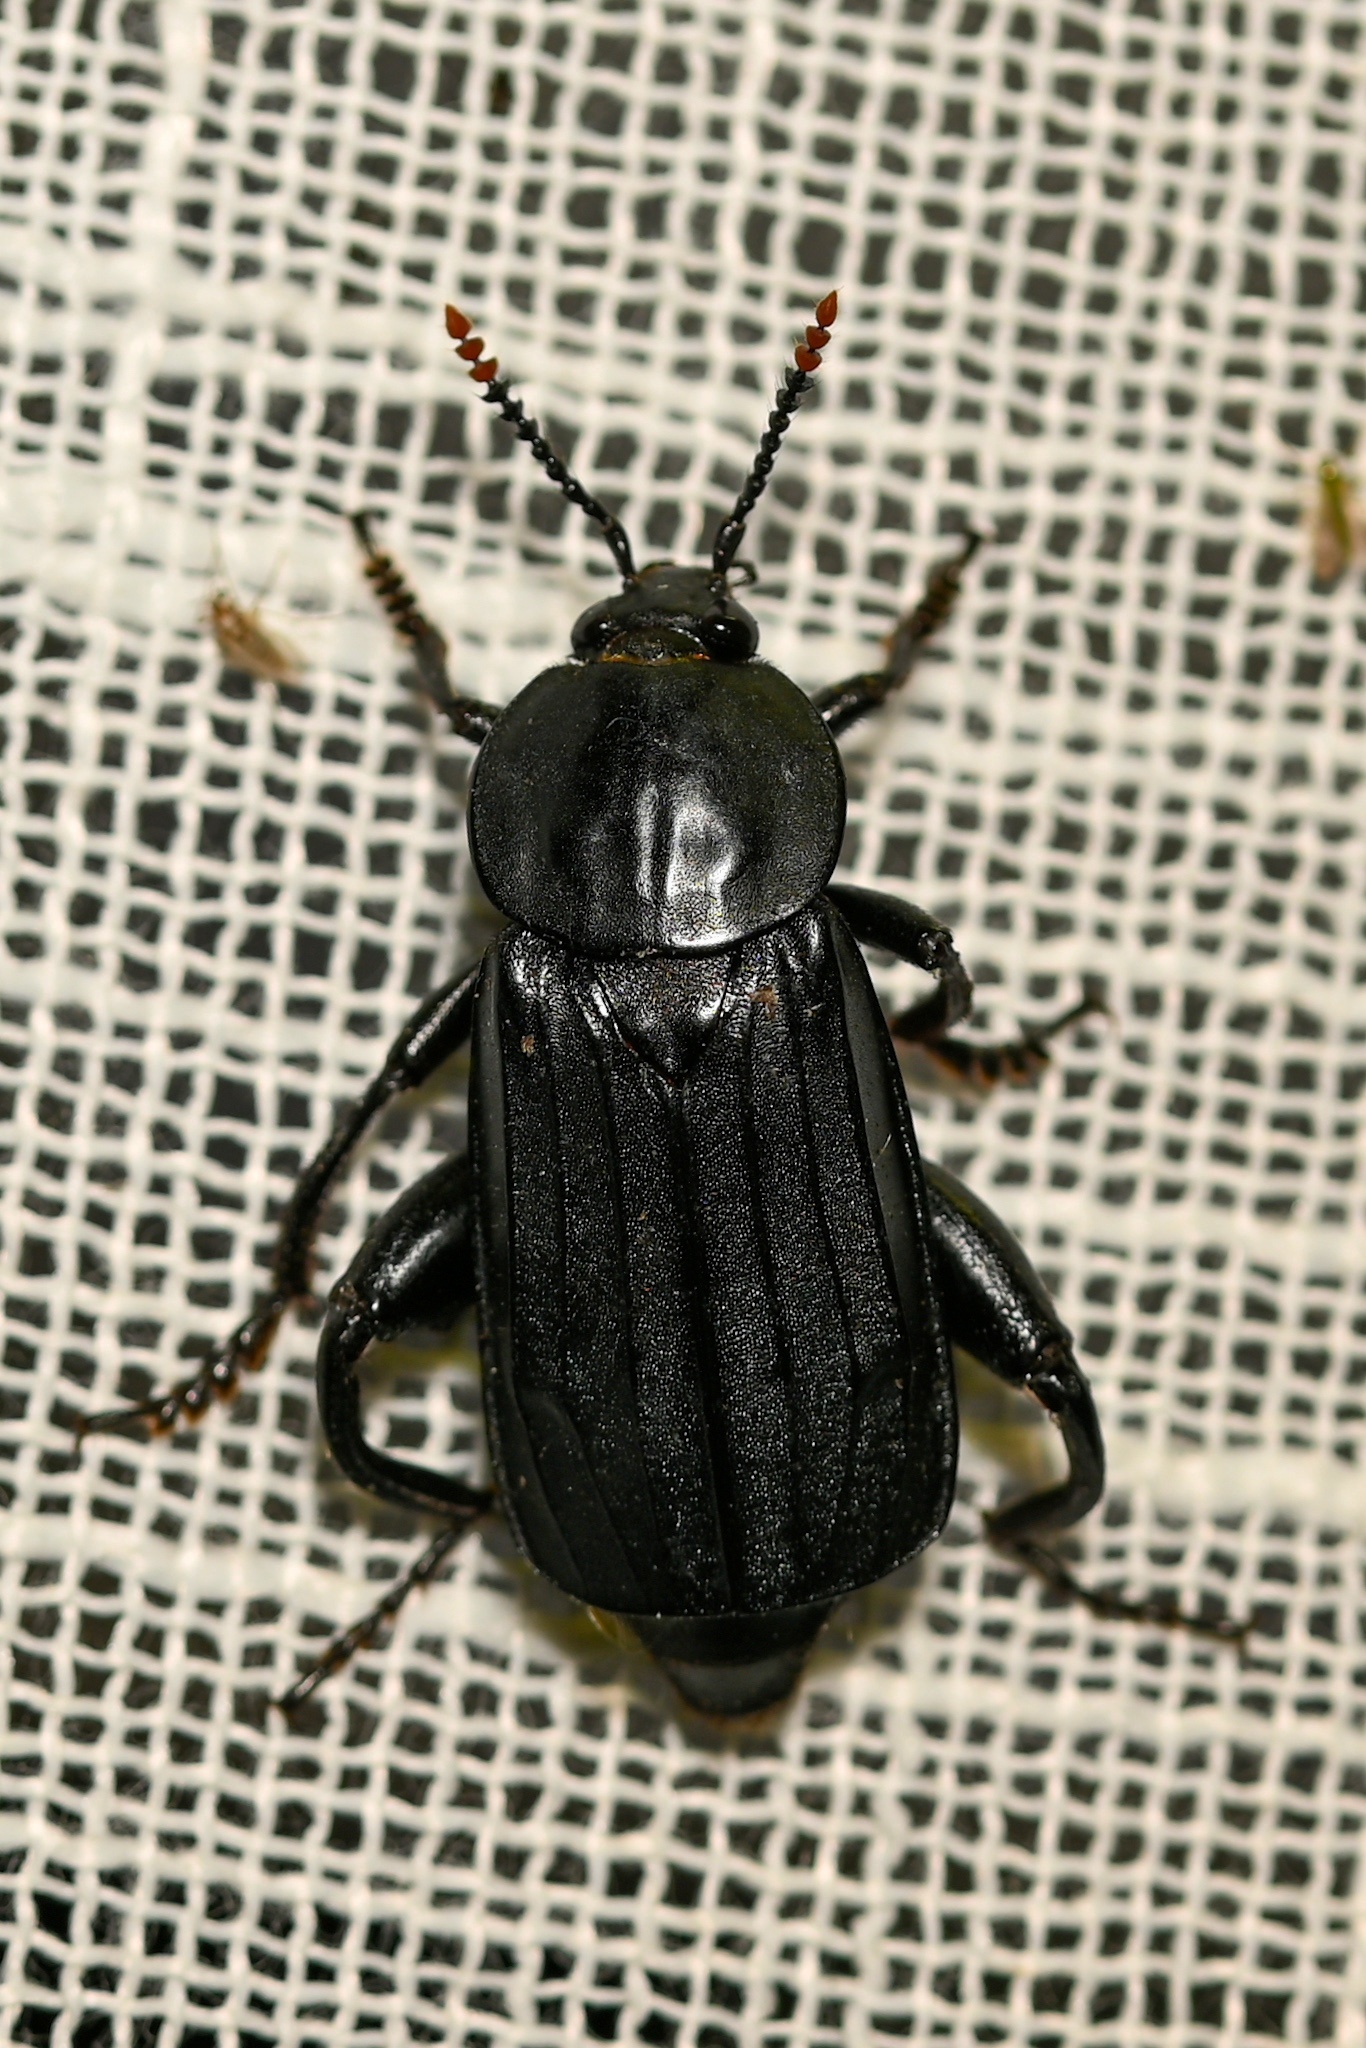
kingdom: Animalia
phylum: Arthropoda
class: Insecta
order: Coleoptera
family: Staphylinidae
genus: Necrodes
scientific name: Necrodes littoralis
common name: Shore sexton beetle
